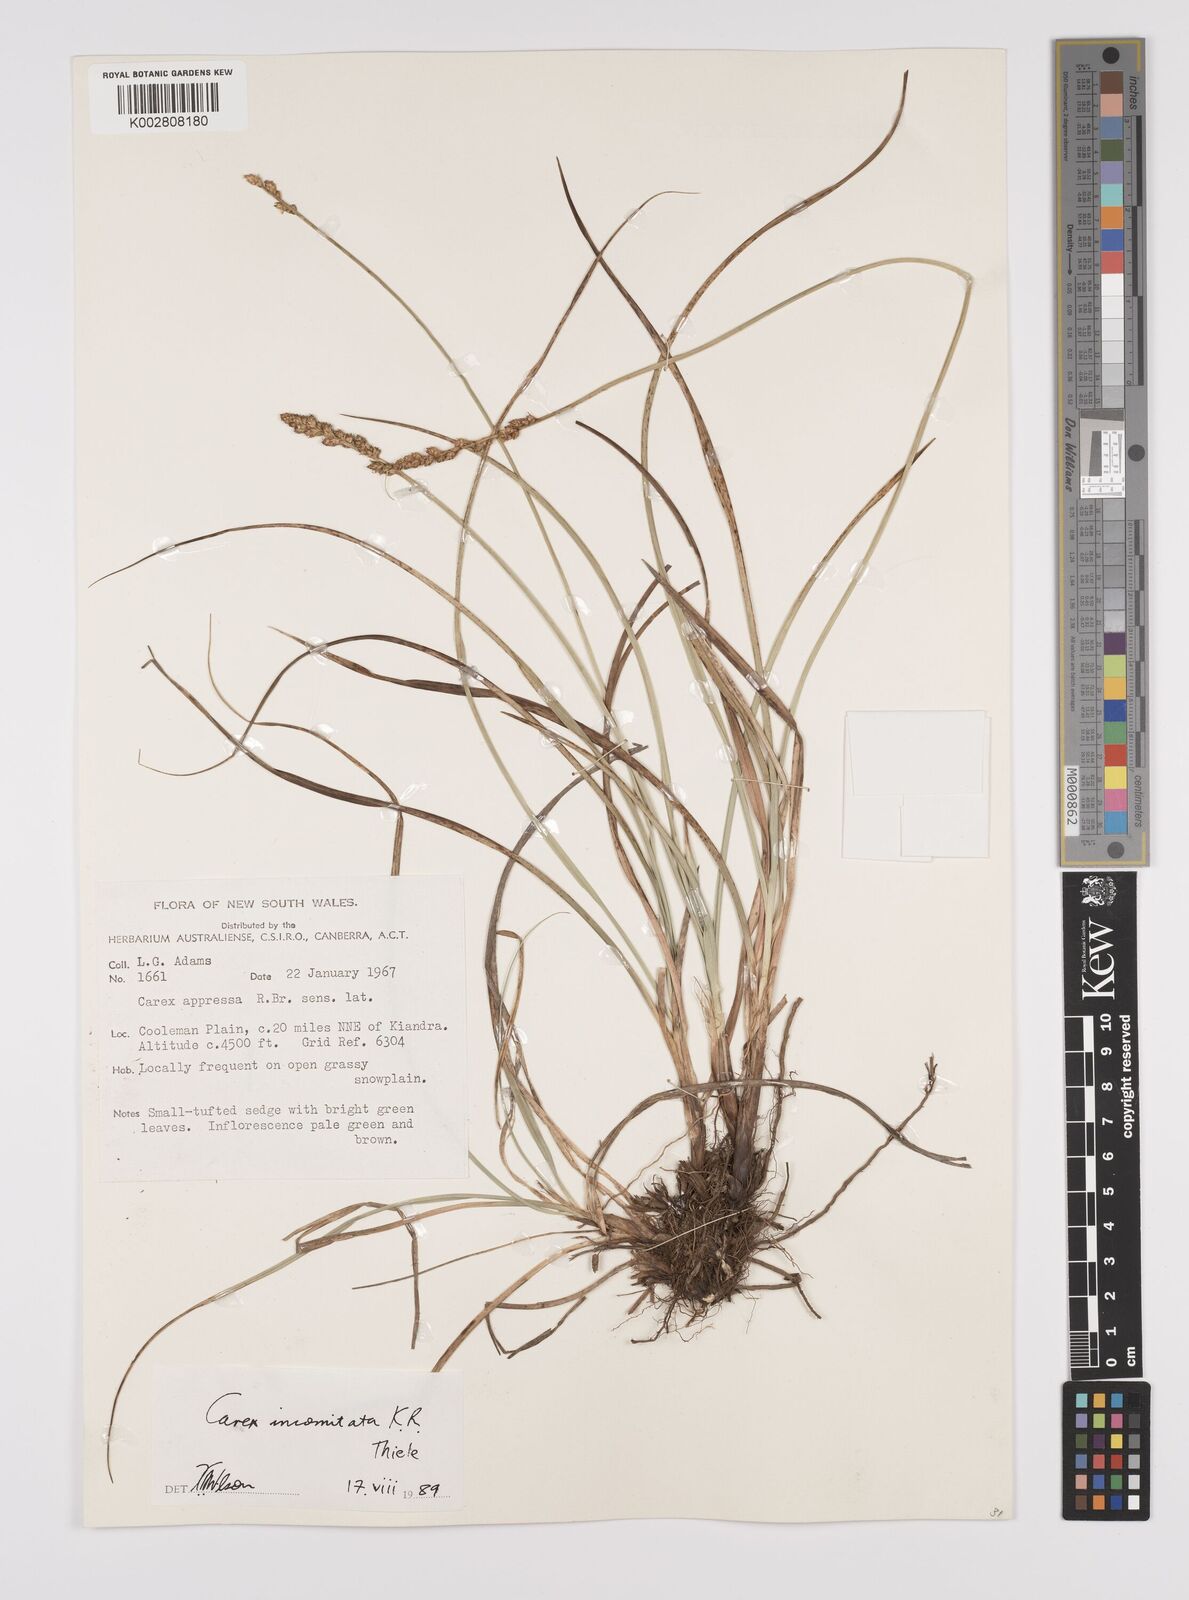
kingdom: Plantae
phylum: Tracheophyta
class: Liliopsida
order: Poales
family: Cyperaceae
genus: Carex
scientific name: Carex incomitata
